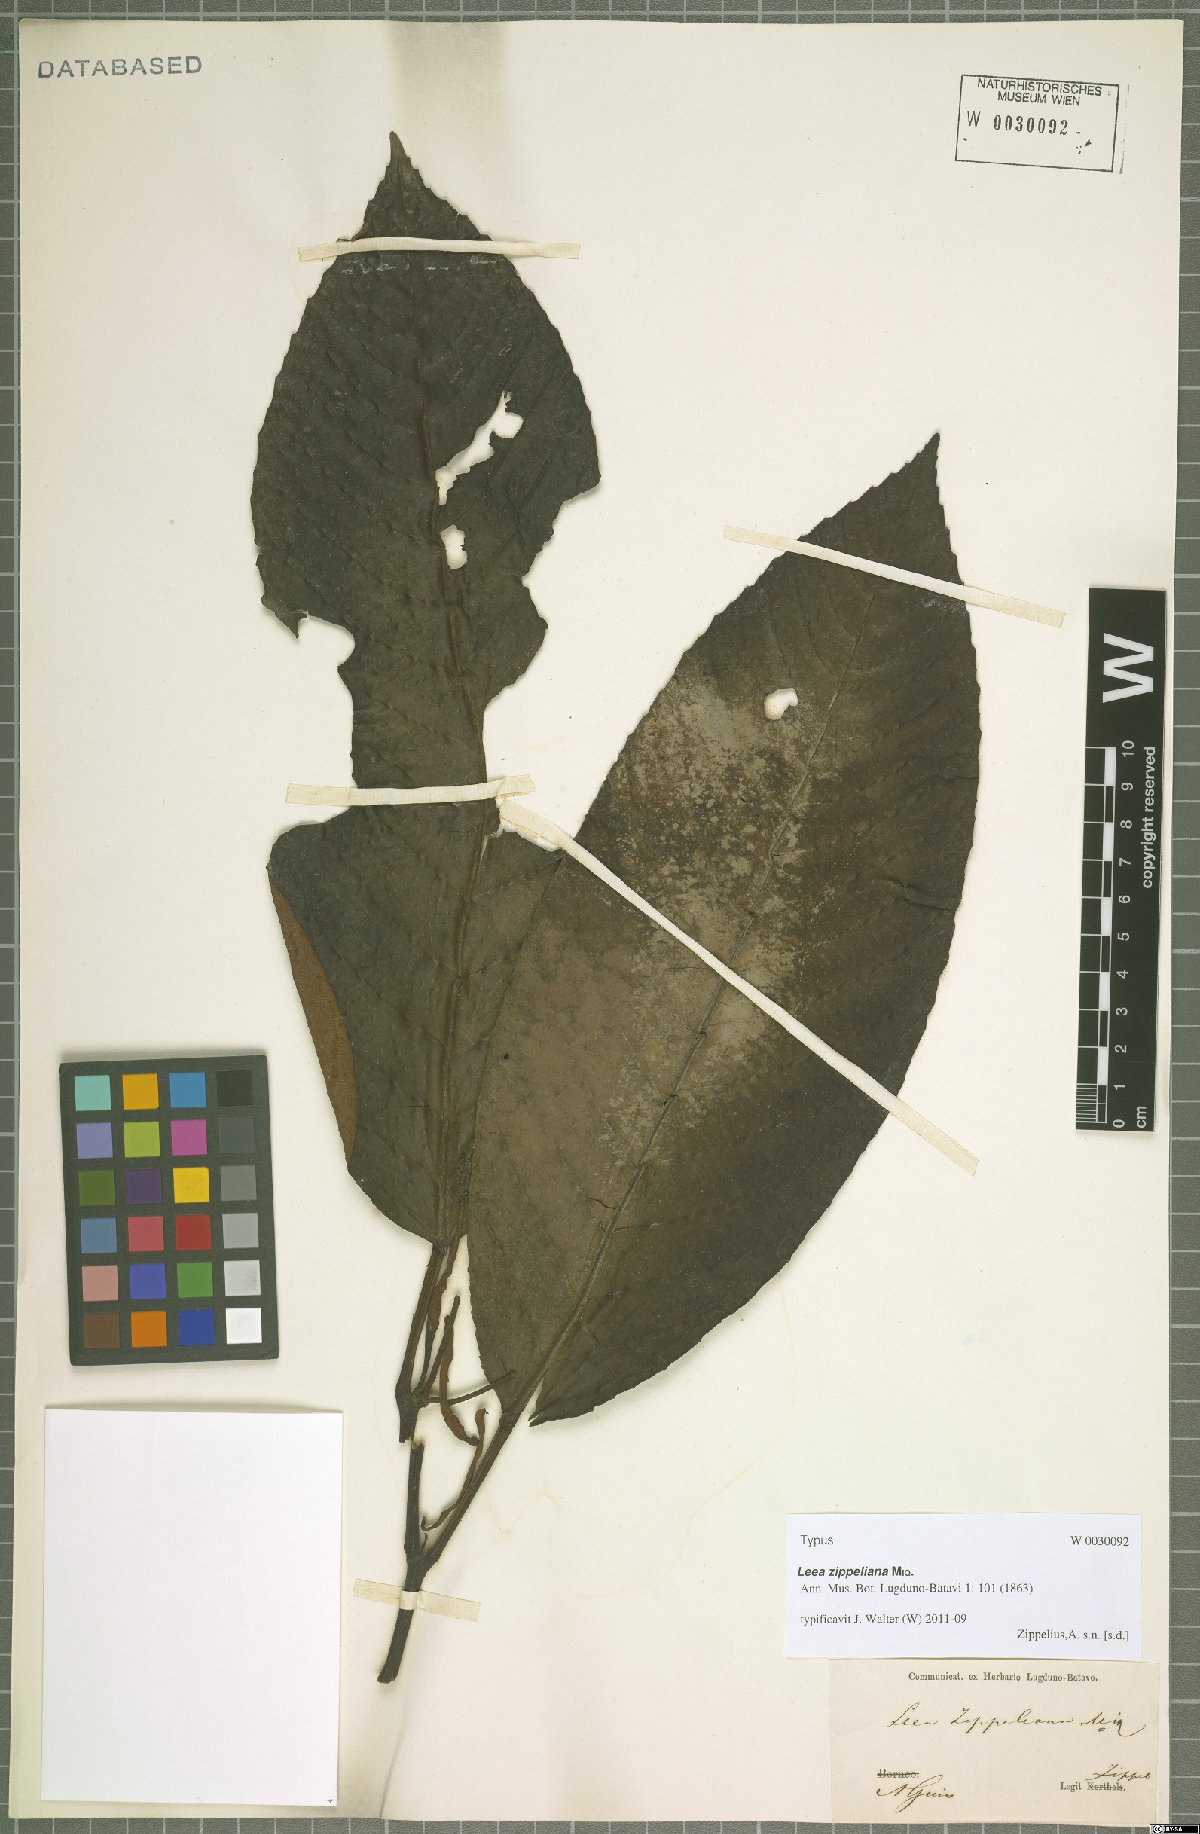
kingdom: Plantae
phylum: Tracheophyta
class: Magnoliopsida
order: Vitales
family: Vitaceae
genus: Leea
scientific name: Leea zippeliana
